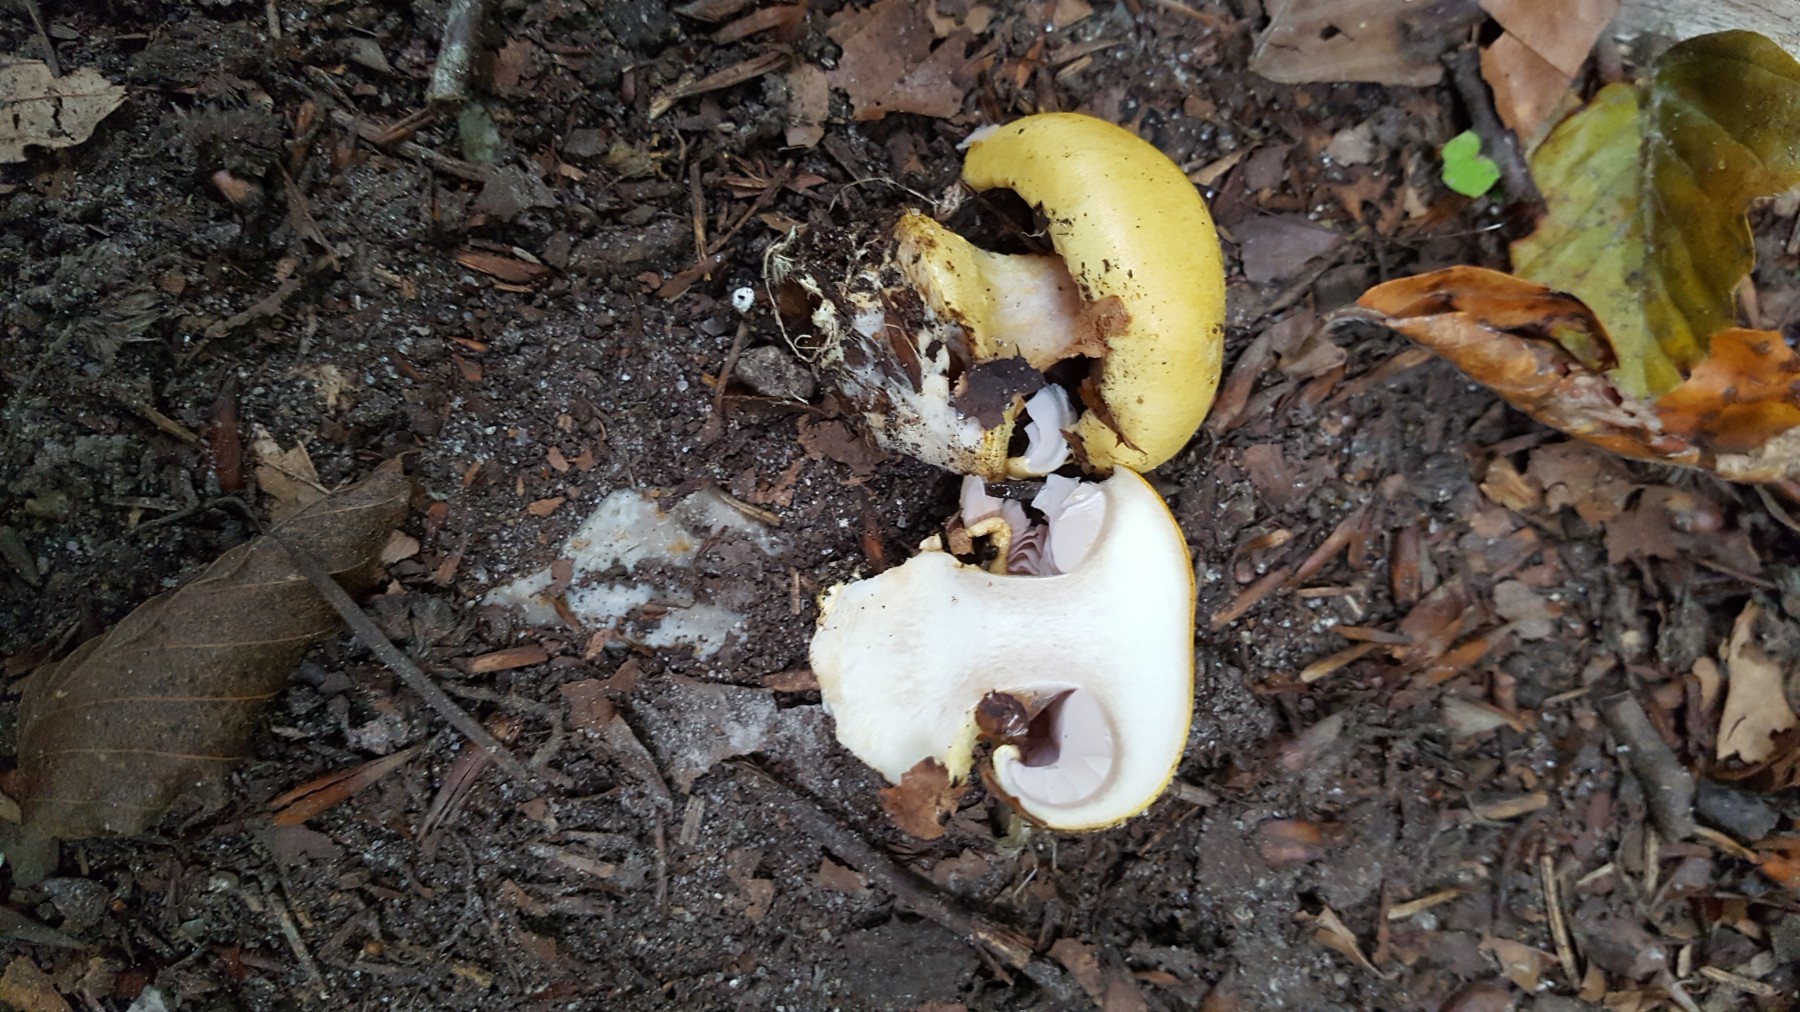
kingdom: Fungi
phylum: Basidiomycota
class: Agaricomycetes
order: Agaricales
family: Cortinariaceae
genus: Calonarius
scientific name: Calonarius callochrous
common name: lillabladet slørhat
